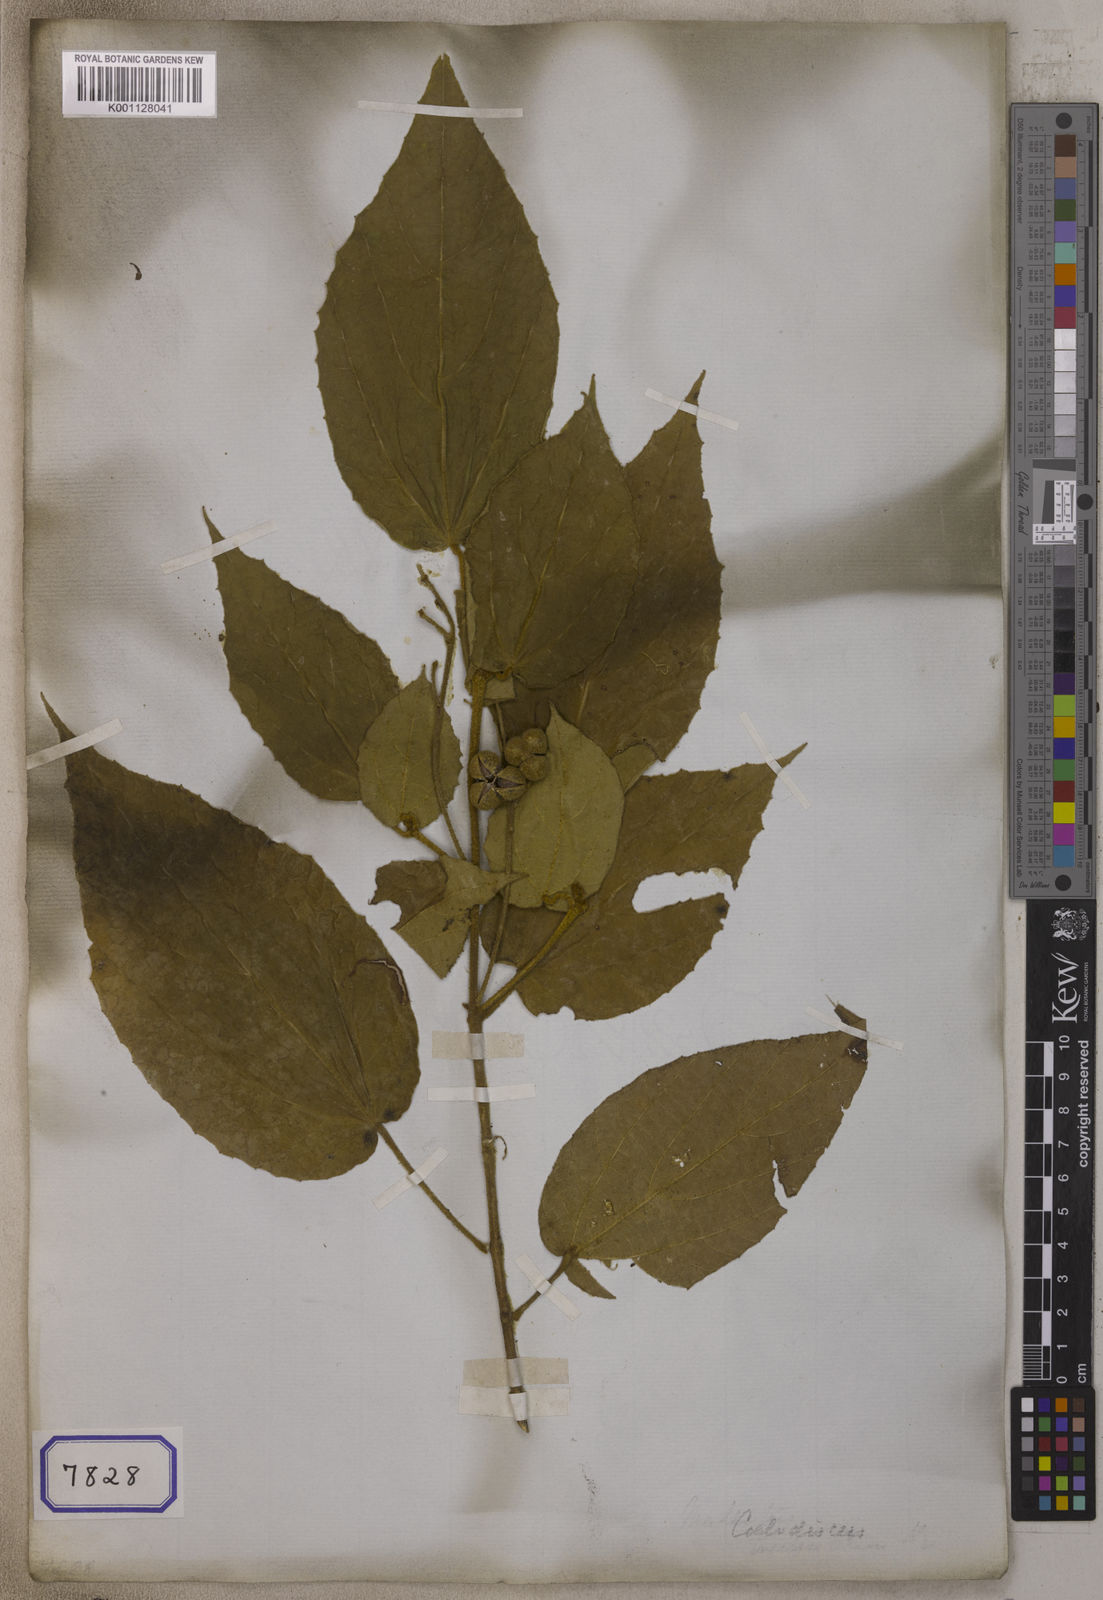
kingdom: Plantae
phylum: Tracheophyta
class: Magnoliopsida
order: Malpighiales
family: Euphorbiaceae
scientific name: Euphorbiaceae
